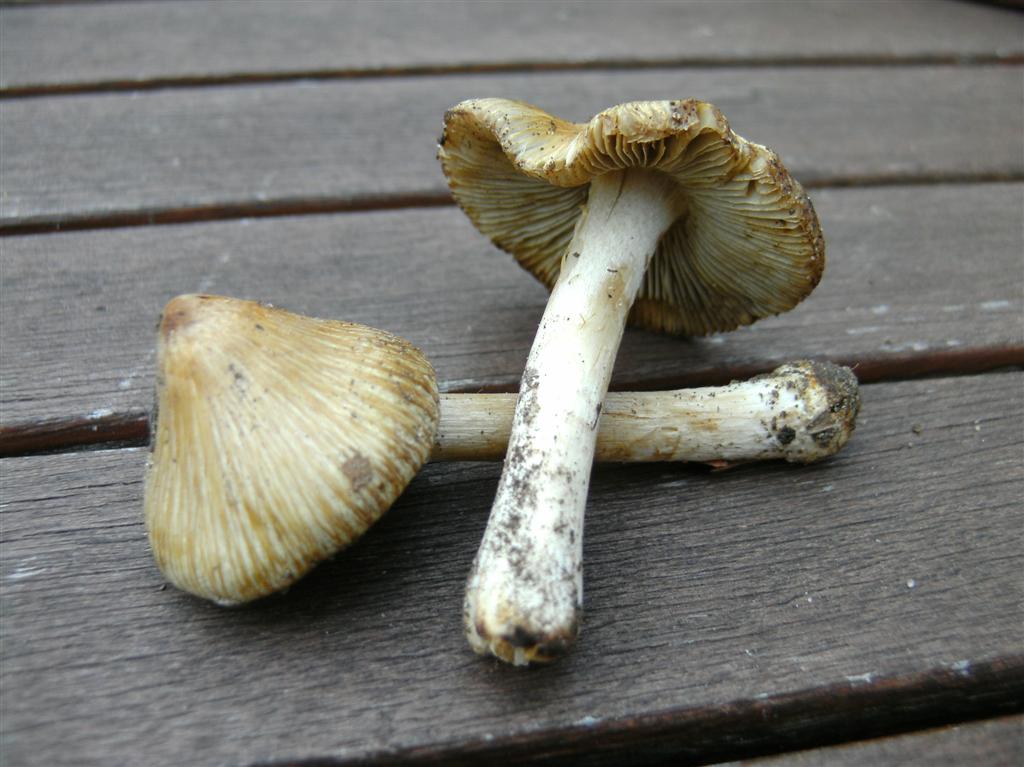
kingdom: Fungi
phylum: Basidiomycota
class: Agaricomycetes
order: Agaricales
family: Inocybaceae
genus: Pseudosperma
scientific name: Pseudosperma rimosum
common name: gulbladet trævlhat
